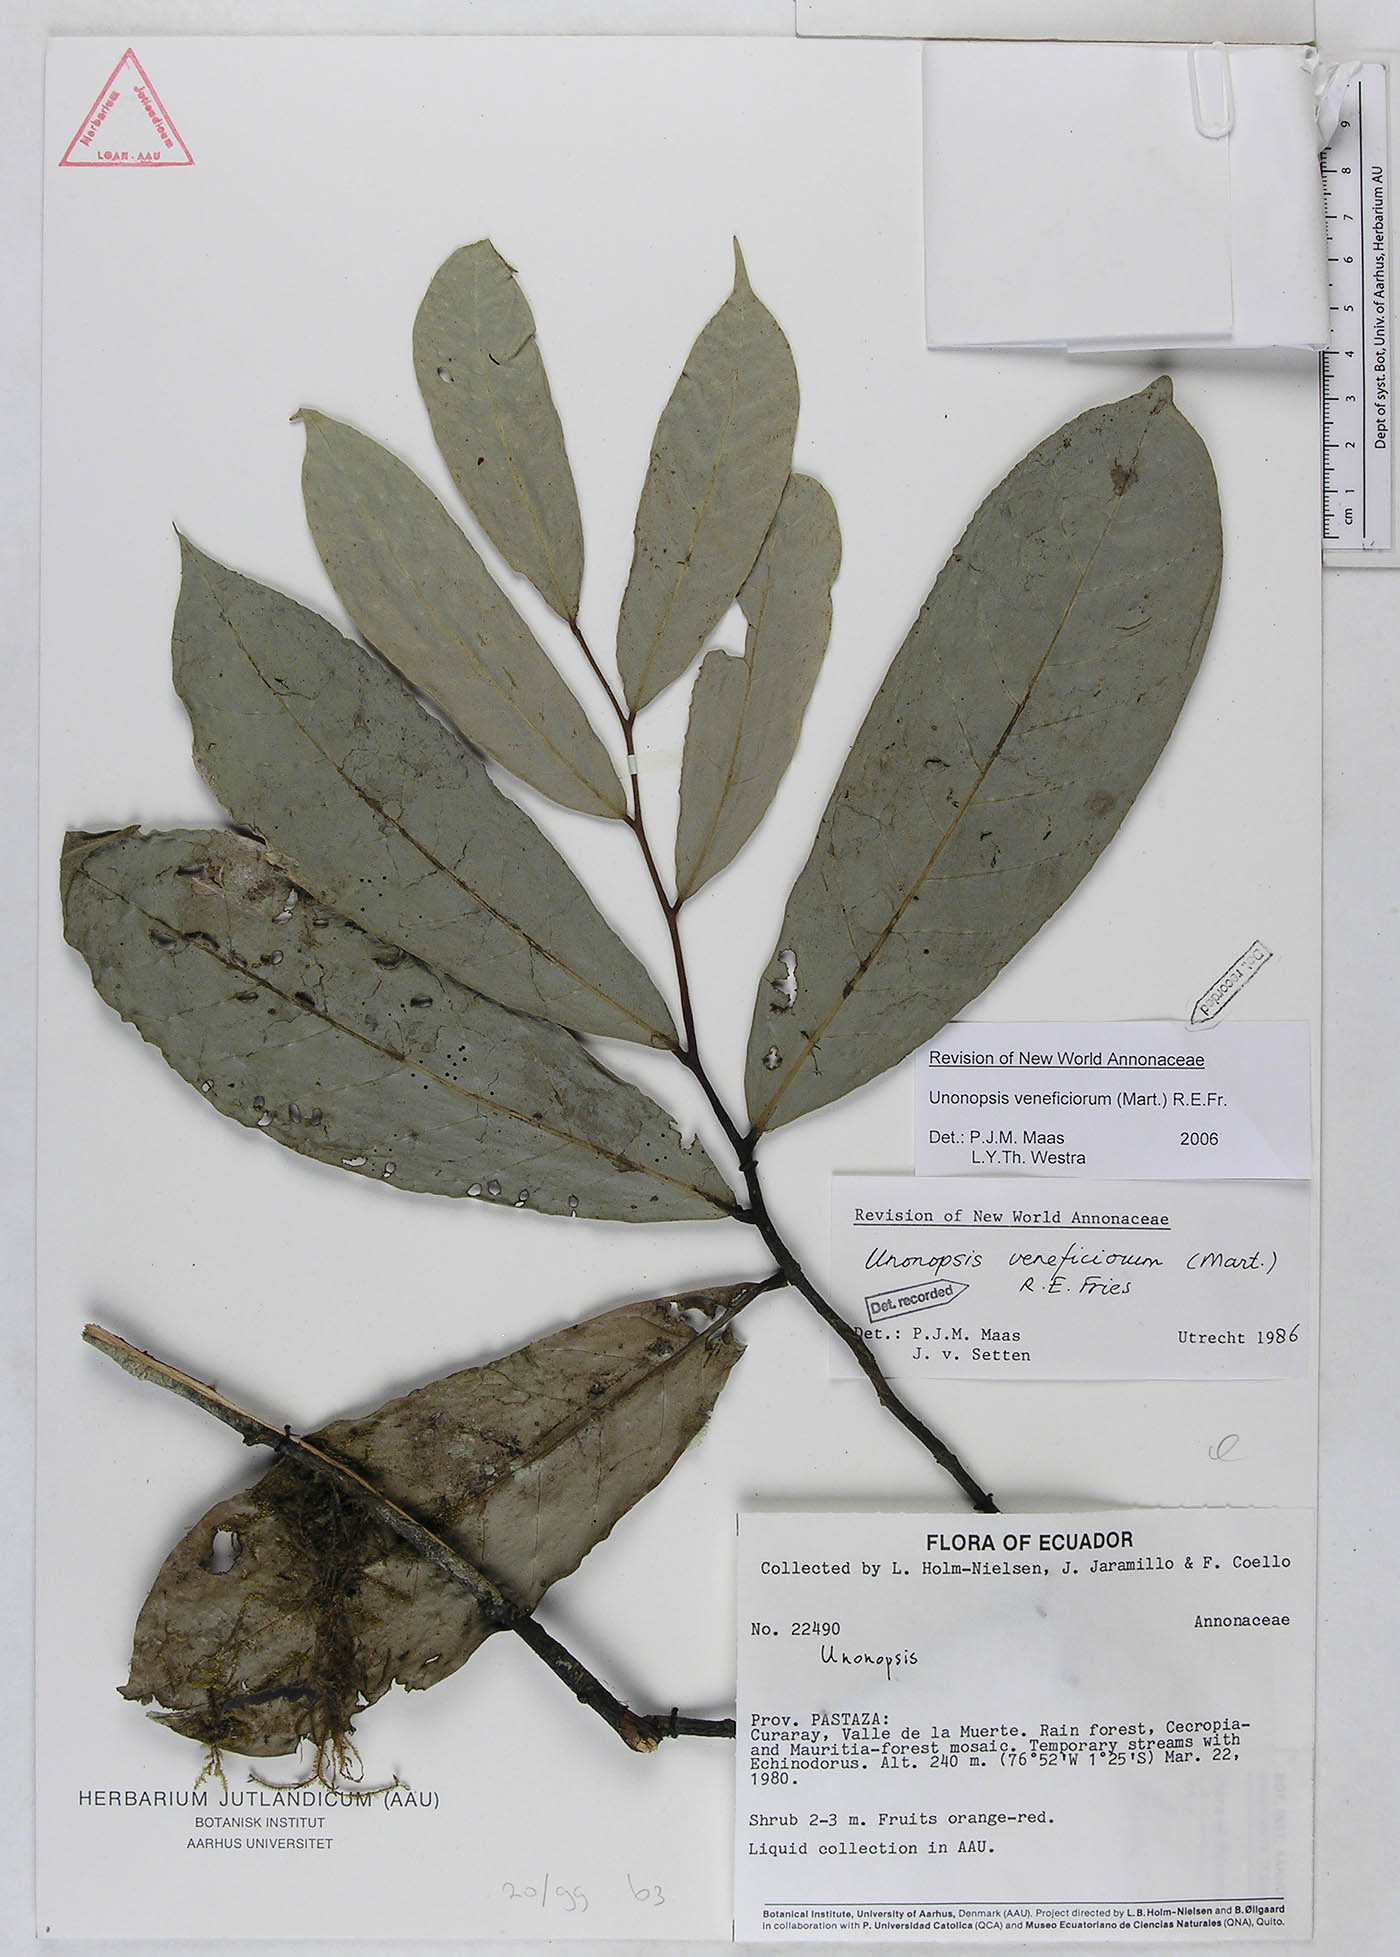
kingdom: Plantae
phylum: Tracheophyta
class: Magnoliopsida
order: Magnoliales
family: Annonaceae
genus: Unonopsis
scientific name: Unonopsis veneficiorum
